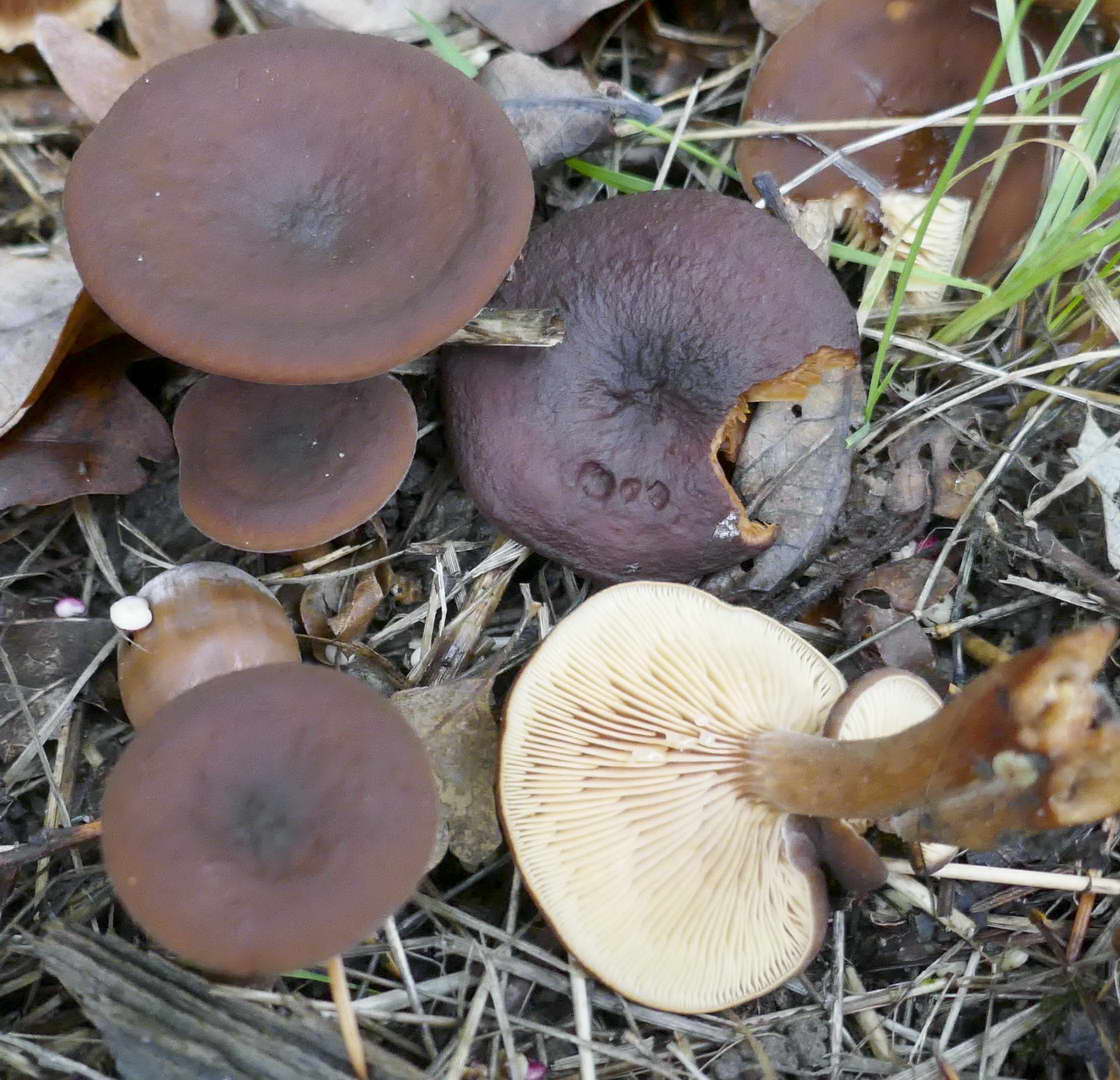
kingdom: Fungi
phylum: Basidiomycota
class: Agaricomycetes
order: Russulales
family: Russulaceae
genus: Lactarius
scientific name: Lactarius serifluus
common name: tæge-mælkehat
